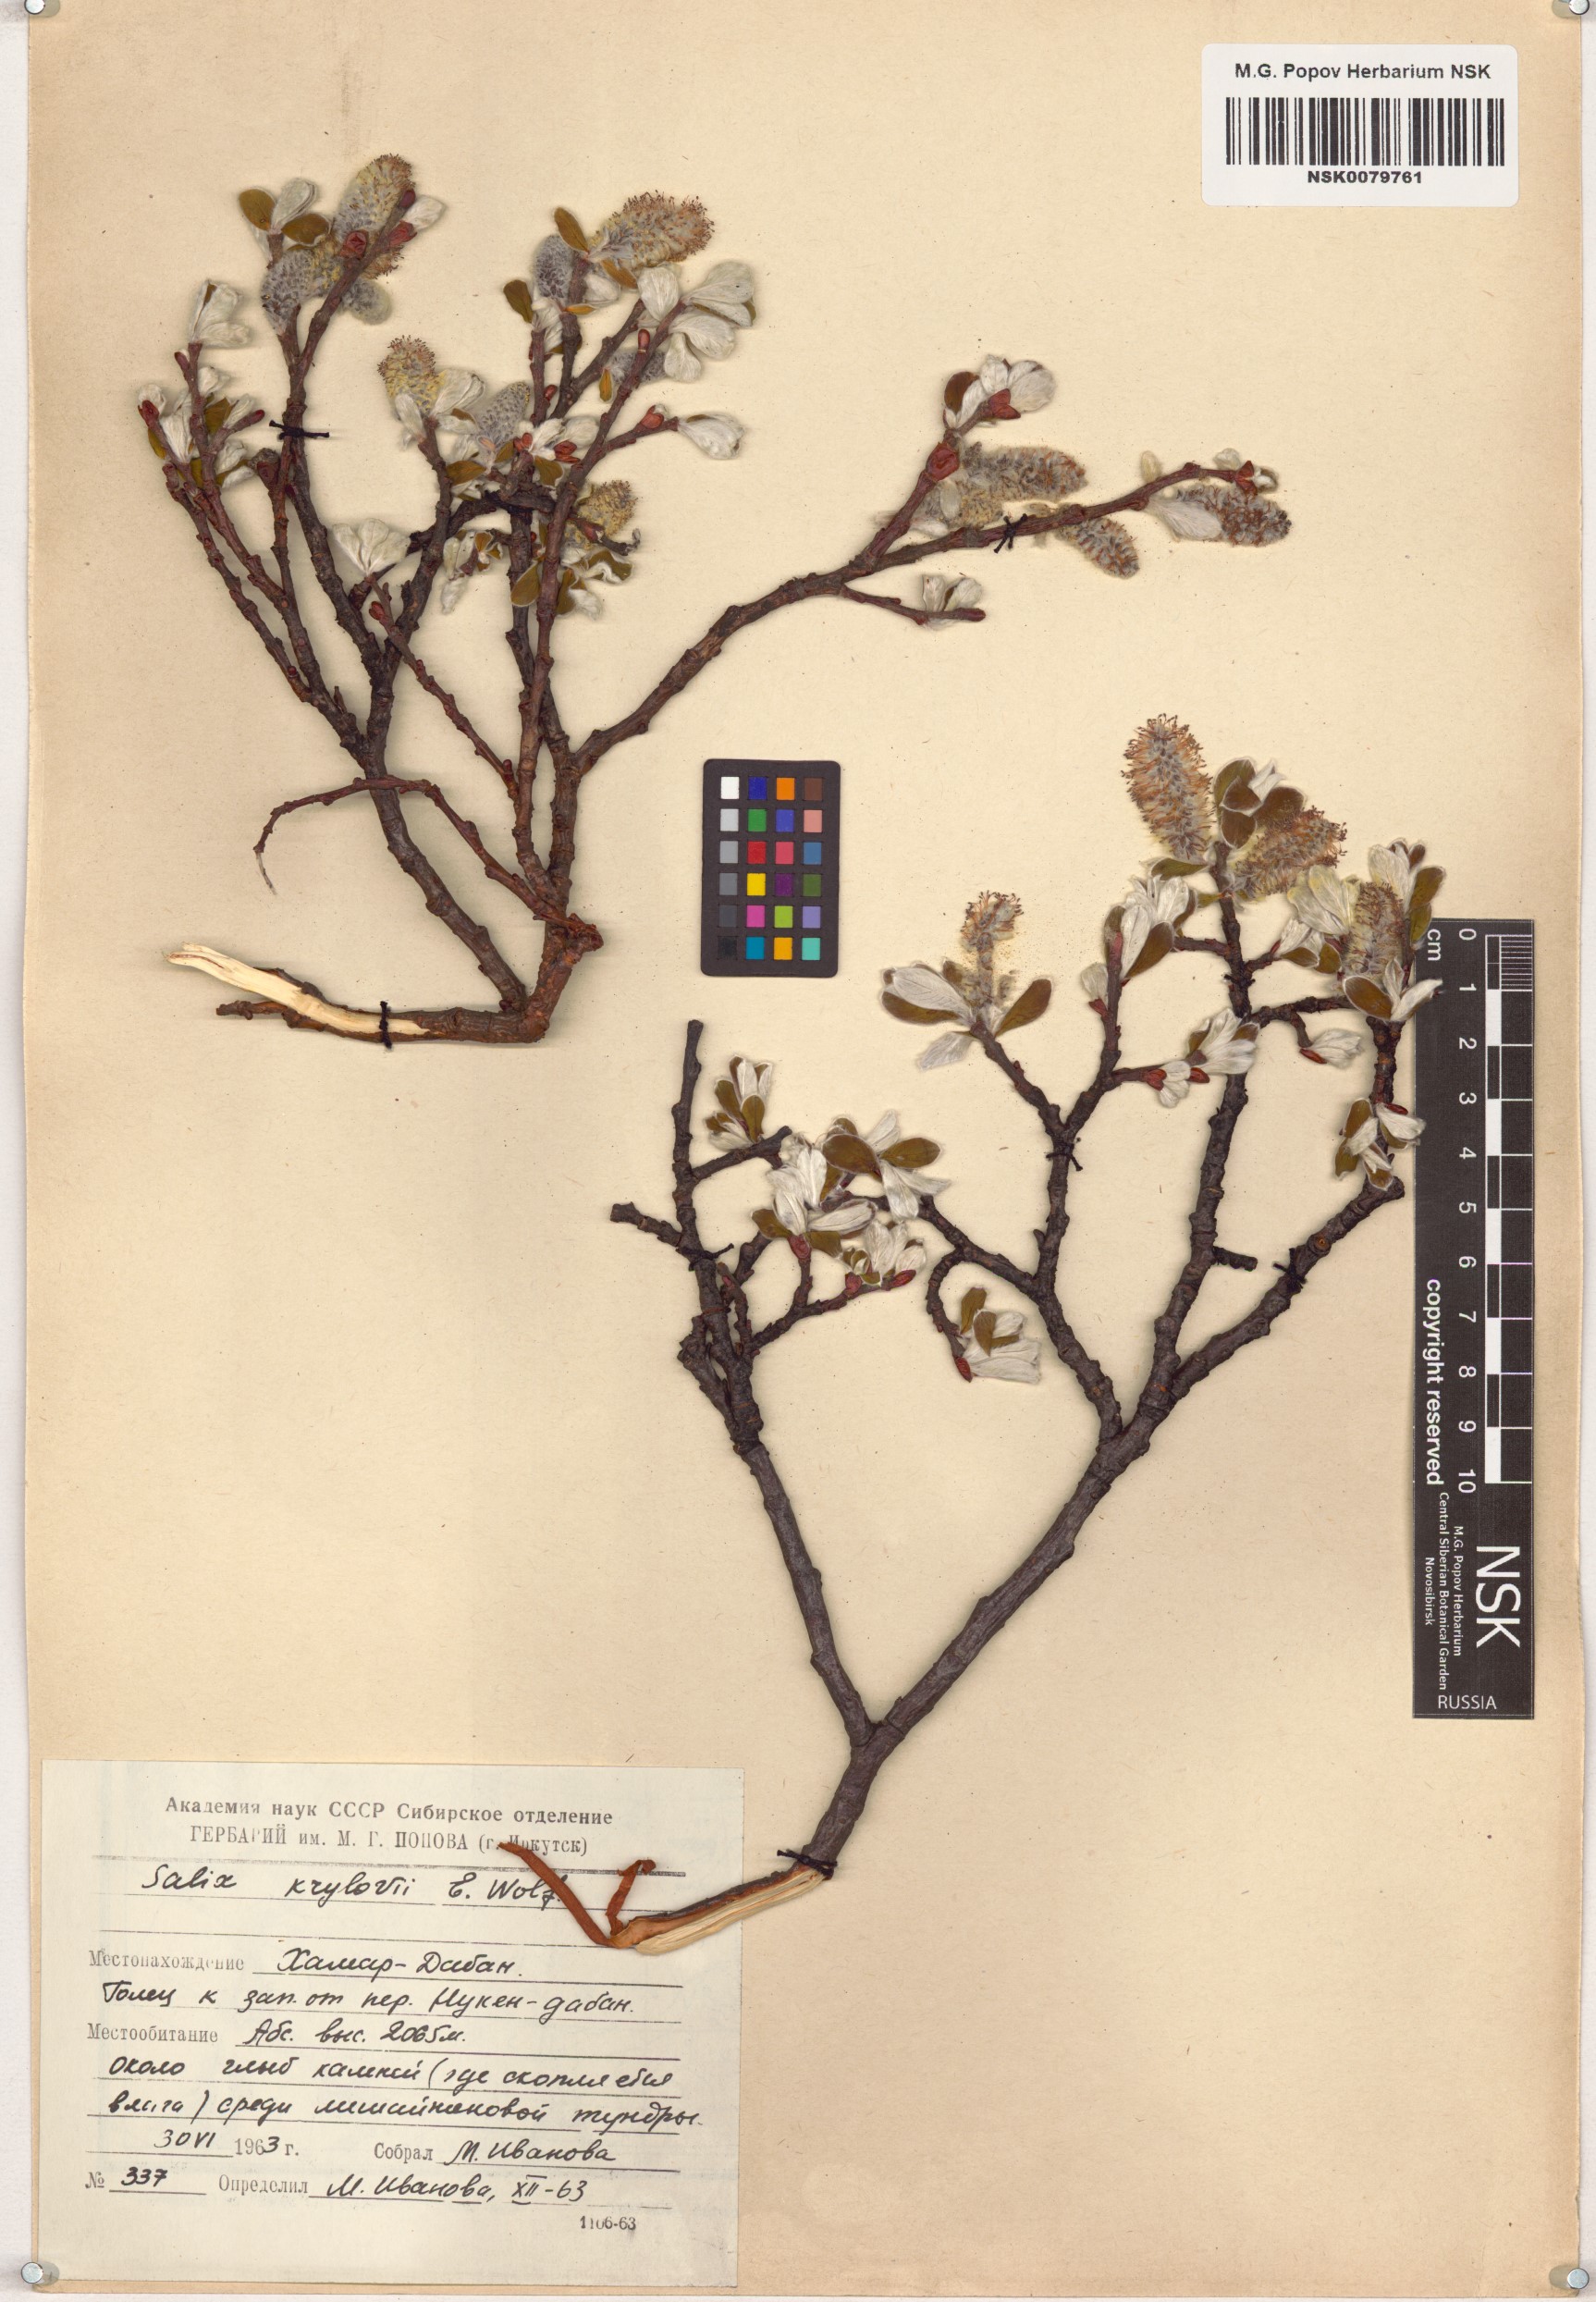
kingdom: Plantae
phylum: Tracheophyta
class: Magnoliopsida
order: Malpighiales
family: Salicaceae
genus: Salix
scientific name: Salix krylovii
